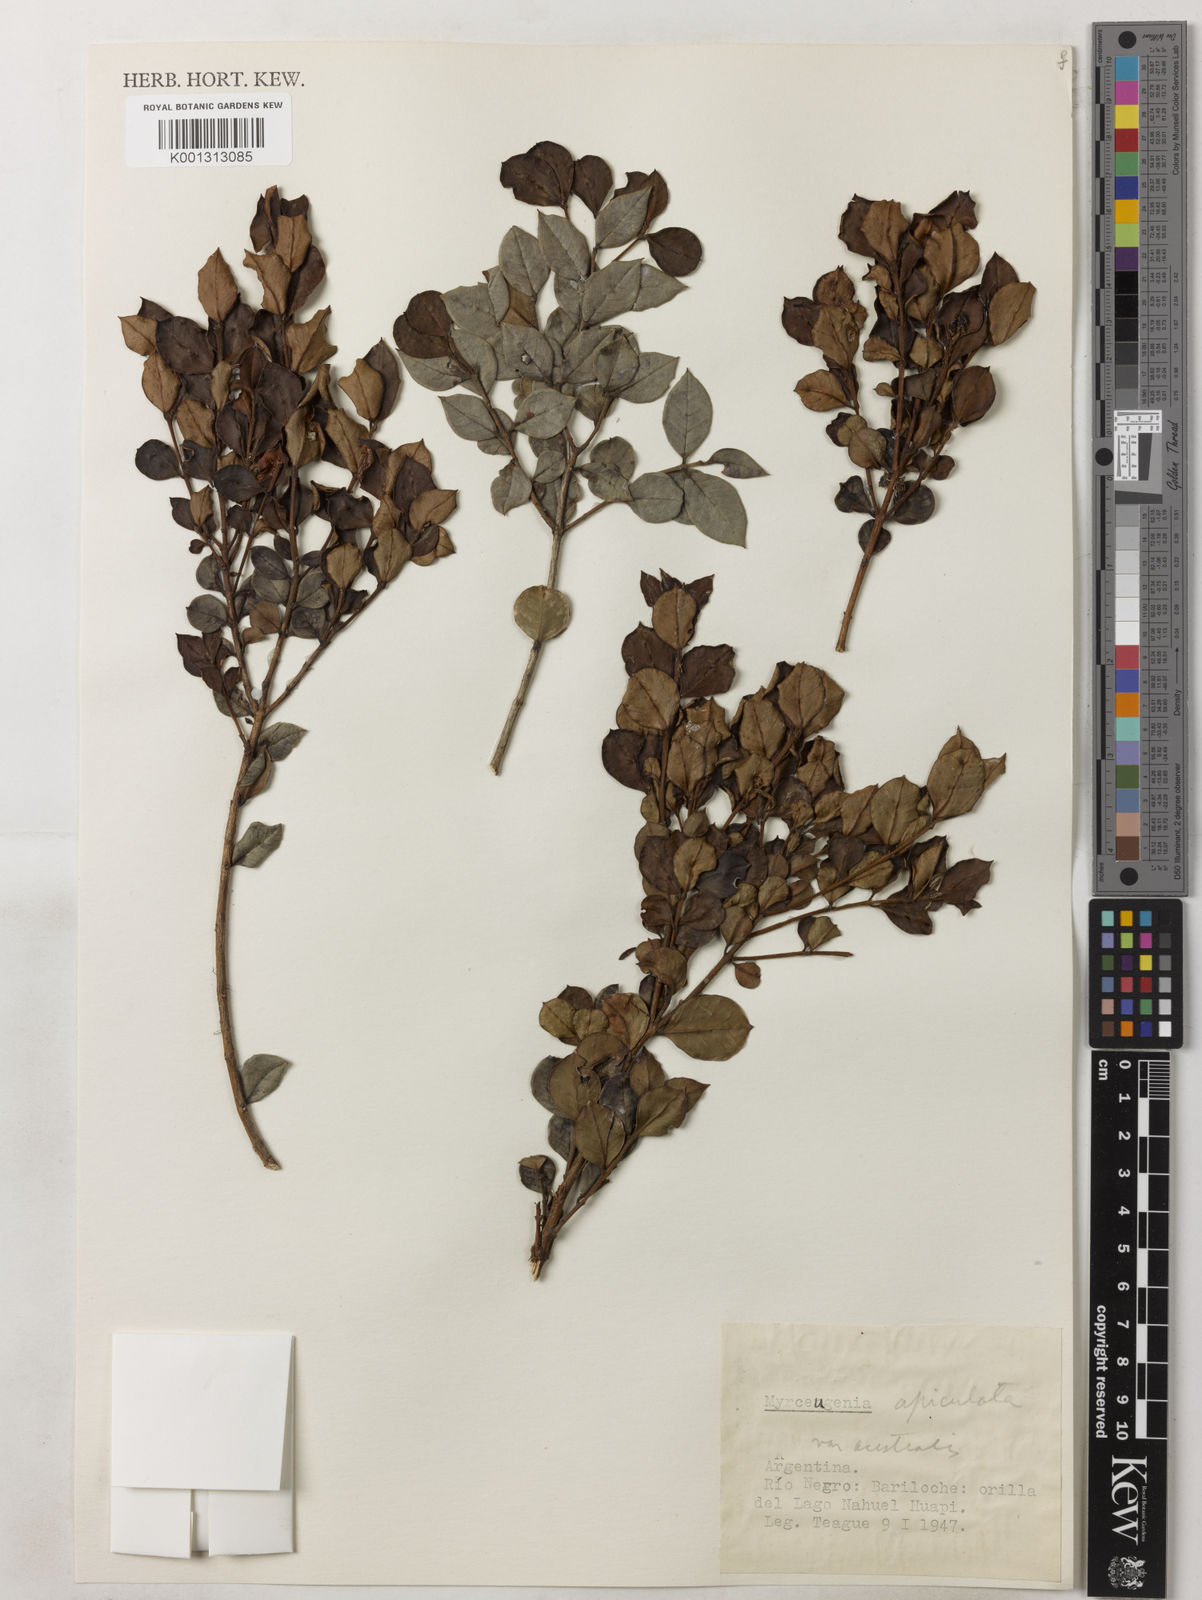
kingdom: Plantae
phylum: Tracheophyta
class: Magnoliopsida
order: Myrtales
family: Myrtaceae
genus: Luma
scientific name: Luma apiculata
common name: Chilean myrtle
